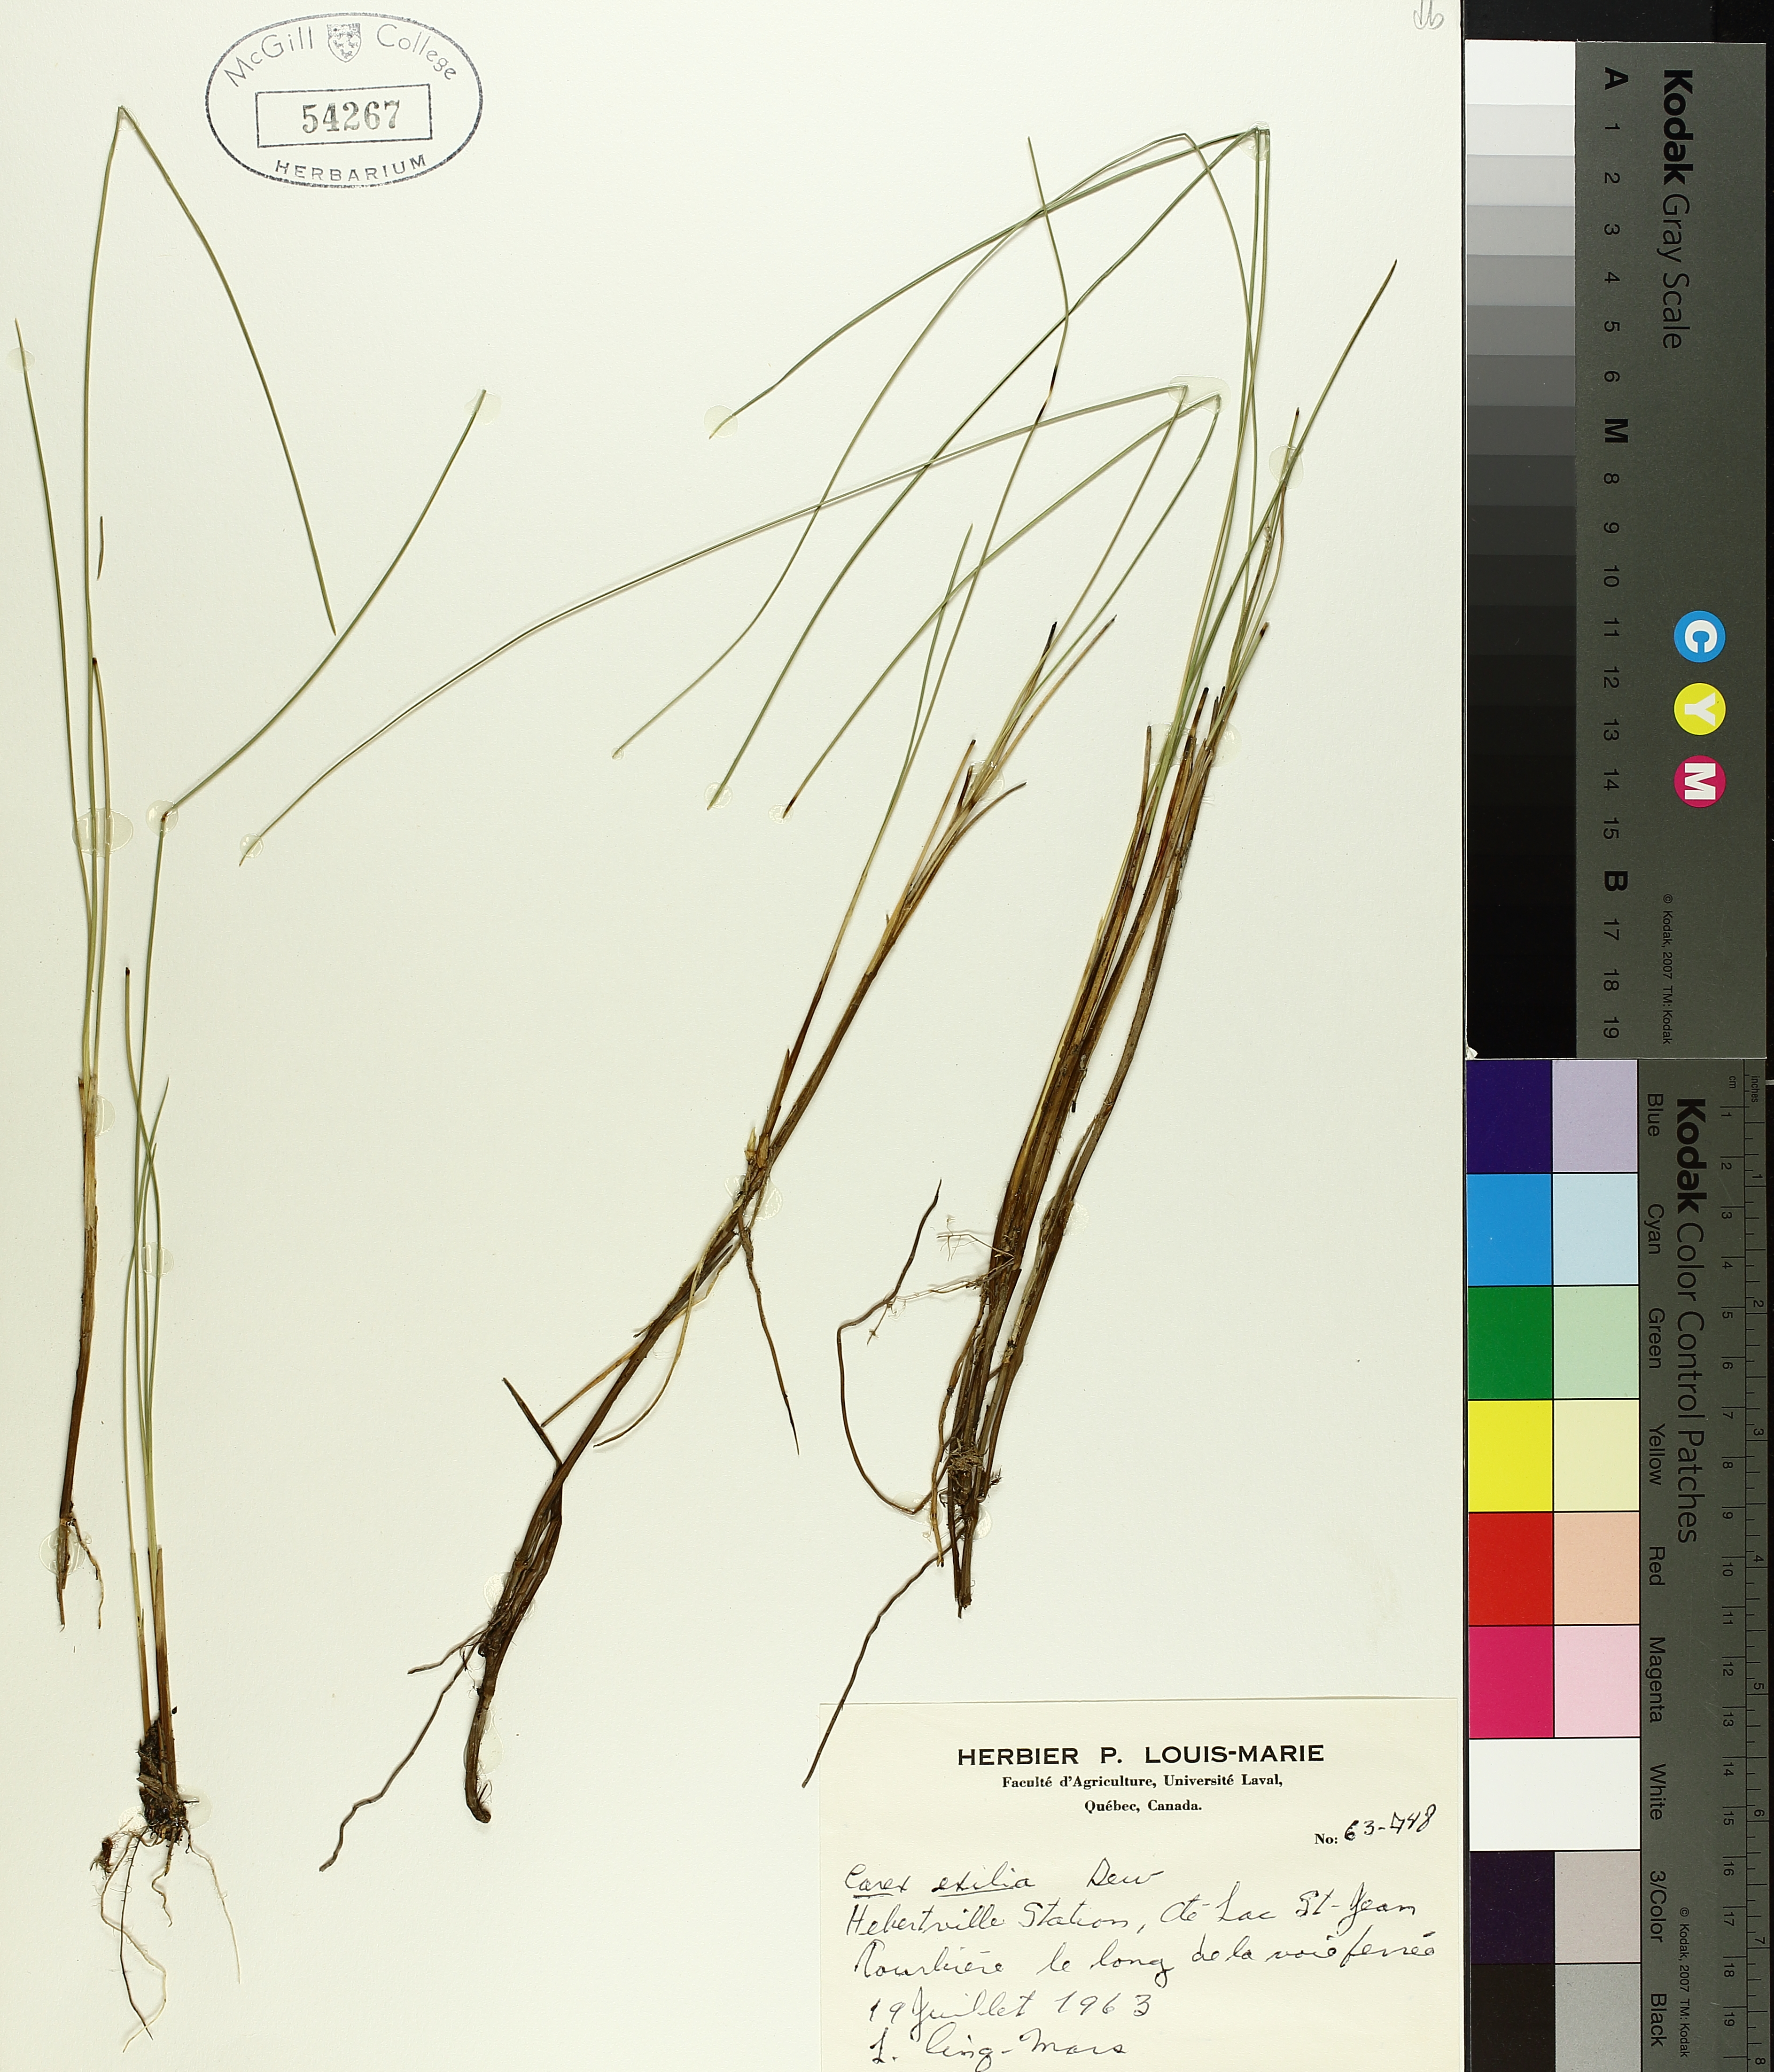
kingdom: Plantae
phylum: Tracheophyta
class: Liliopsida
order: Poales
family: Cyperaceae
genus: Carex
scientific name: Carex exilis
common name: Coastal sedge
